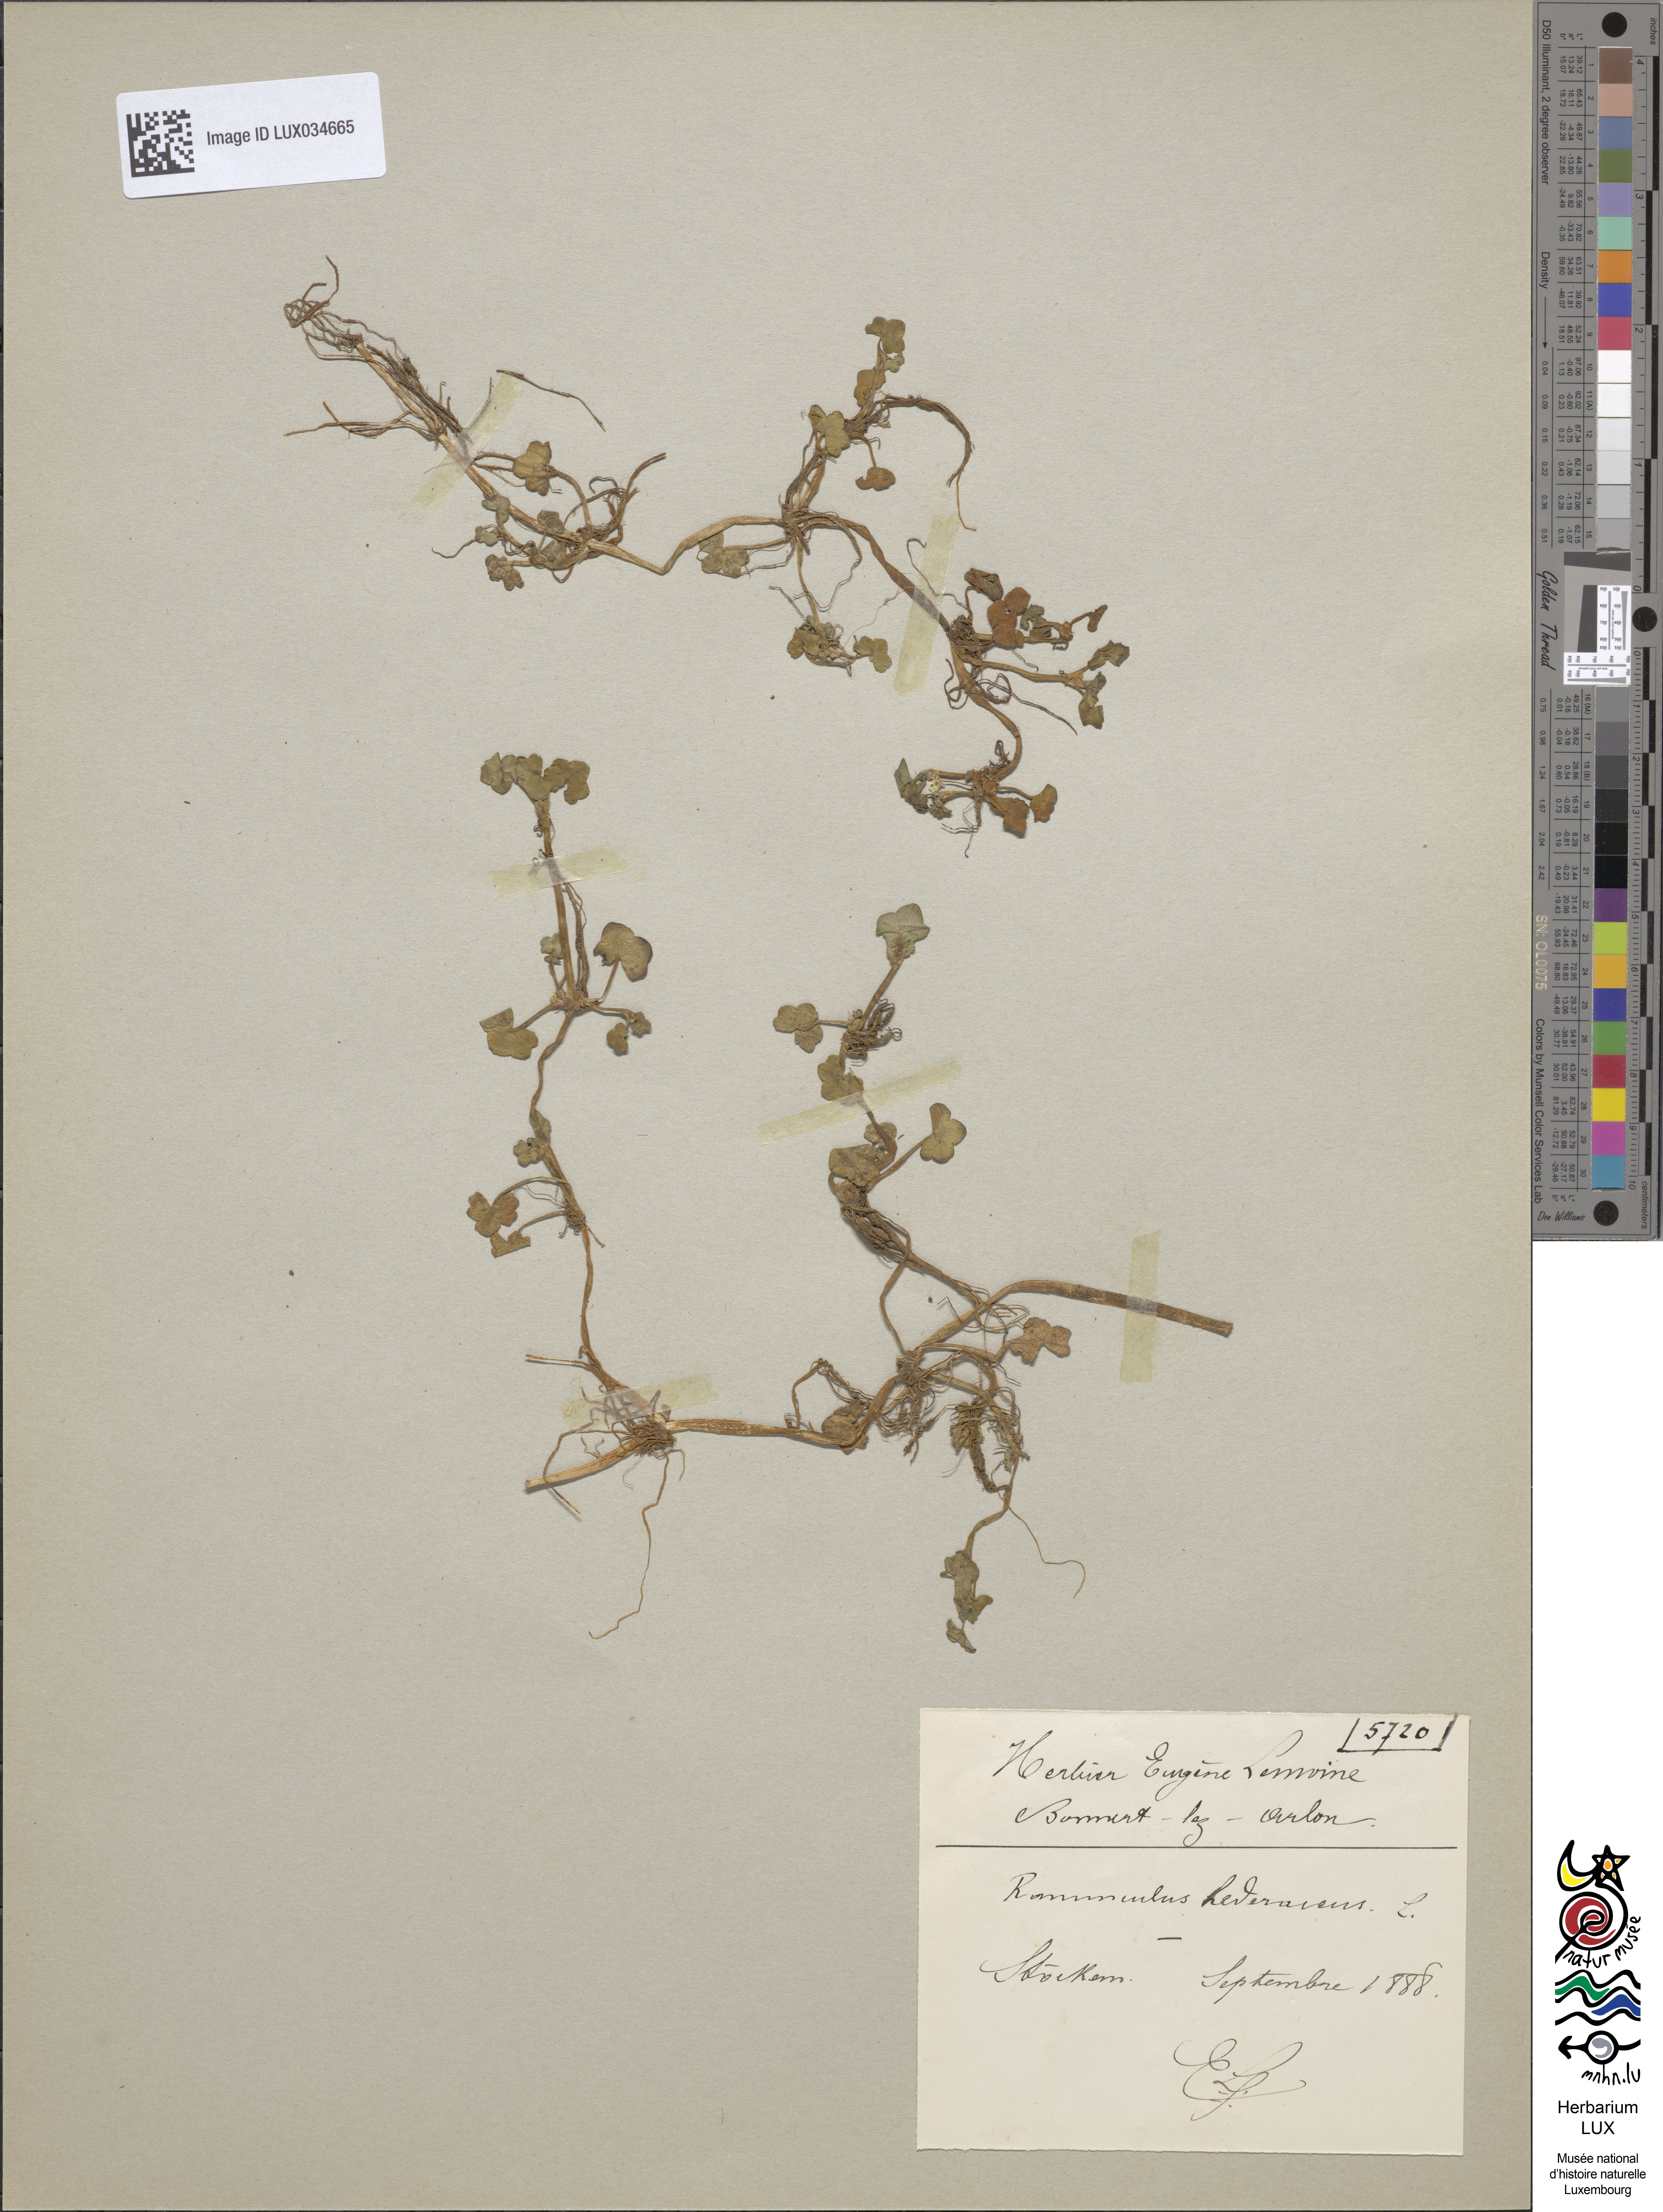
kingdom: Plantae
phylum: Tracheophyta
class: Magnoliopsida
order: Ranunculales
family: Ranunculaceae
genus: Ranunculus
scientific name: Ranunculus hederaceus
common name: Ivy-leaved crowfoot
